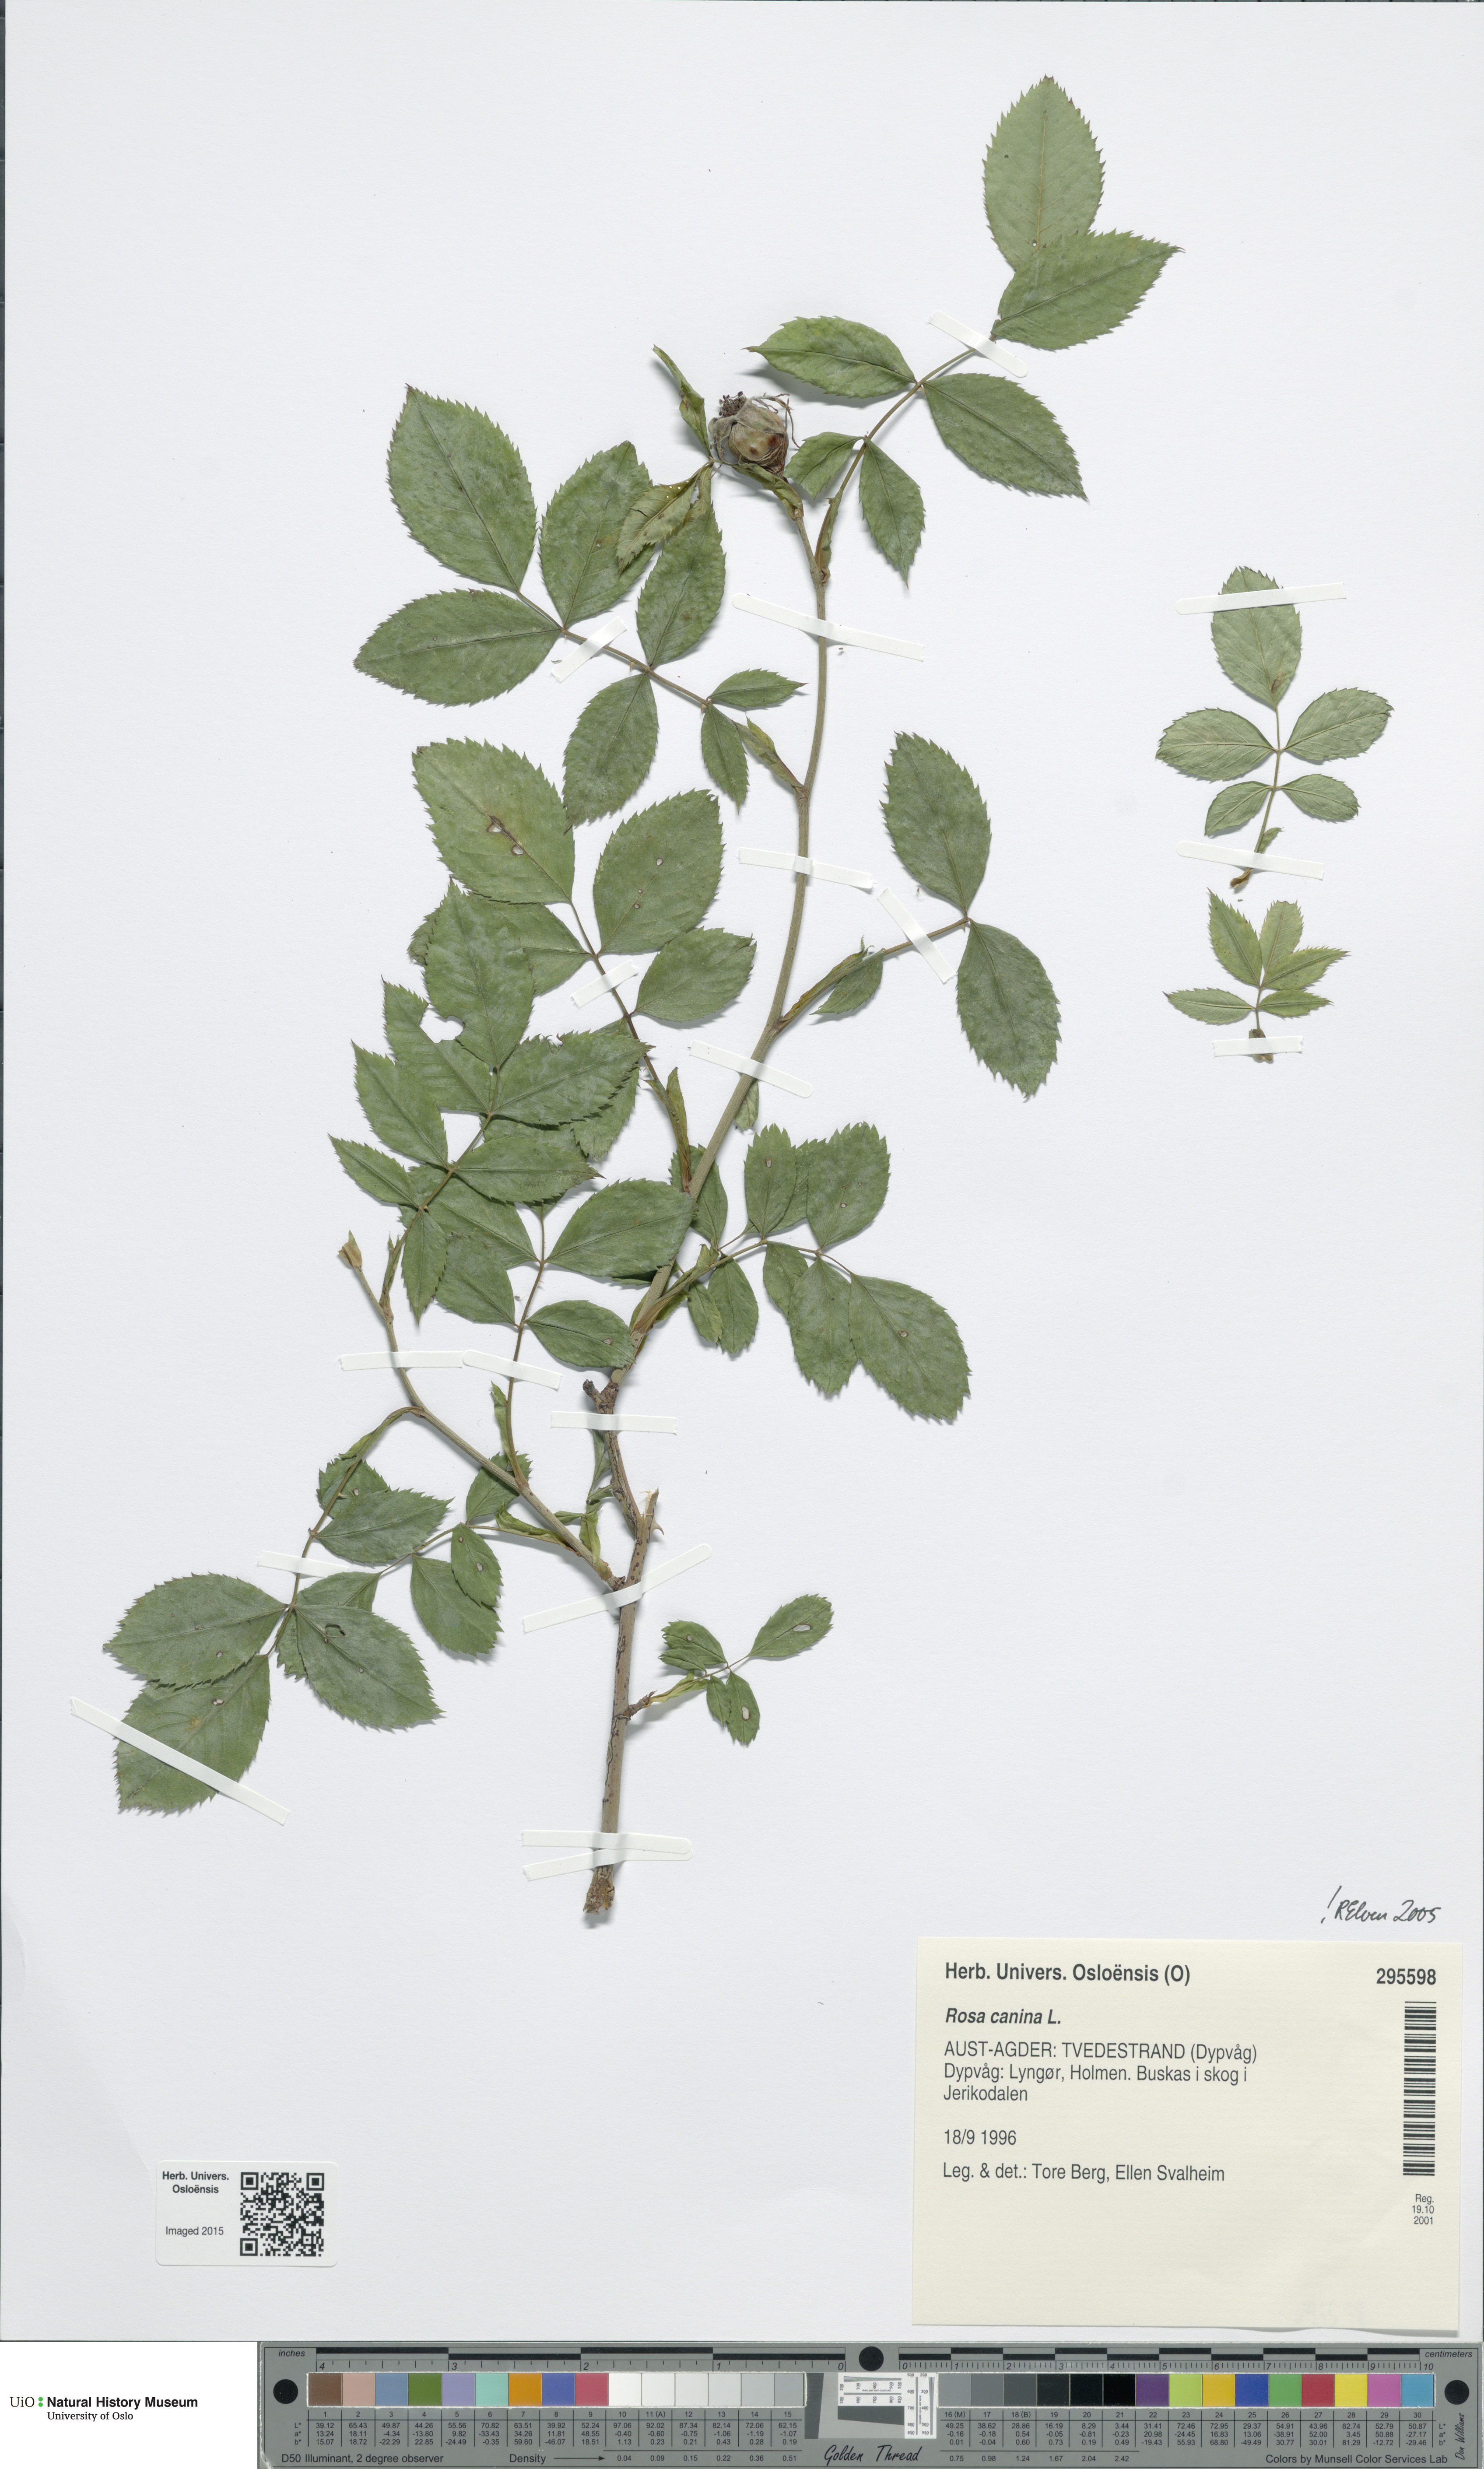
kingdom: Plantae
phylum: Tracheophyta
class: Magnoliopsida
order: Rosales
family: Rosaceae
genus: Rosa
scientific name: Rosa canina
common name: Dog rose
